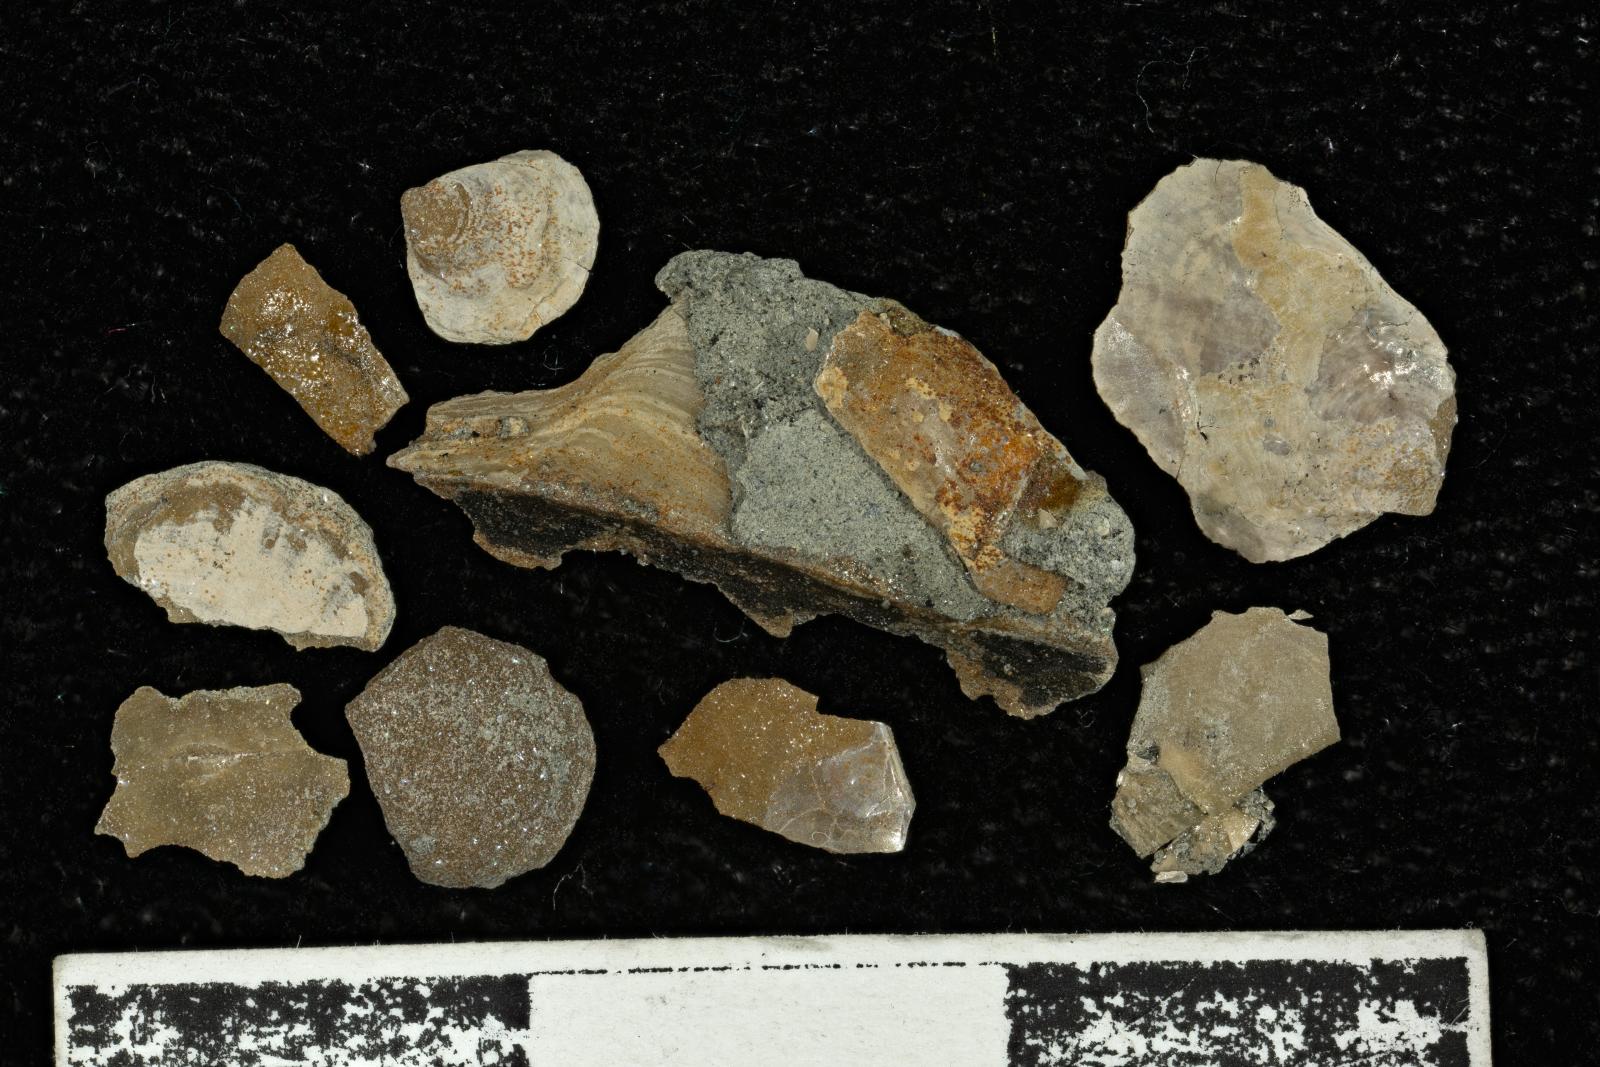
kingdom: Animalia
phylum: Mollusca
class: Bivalvia
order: Ostreida
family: Pteriidae
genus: Pteria
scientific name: Pteria
